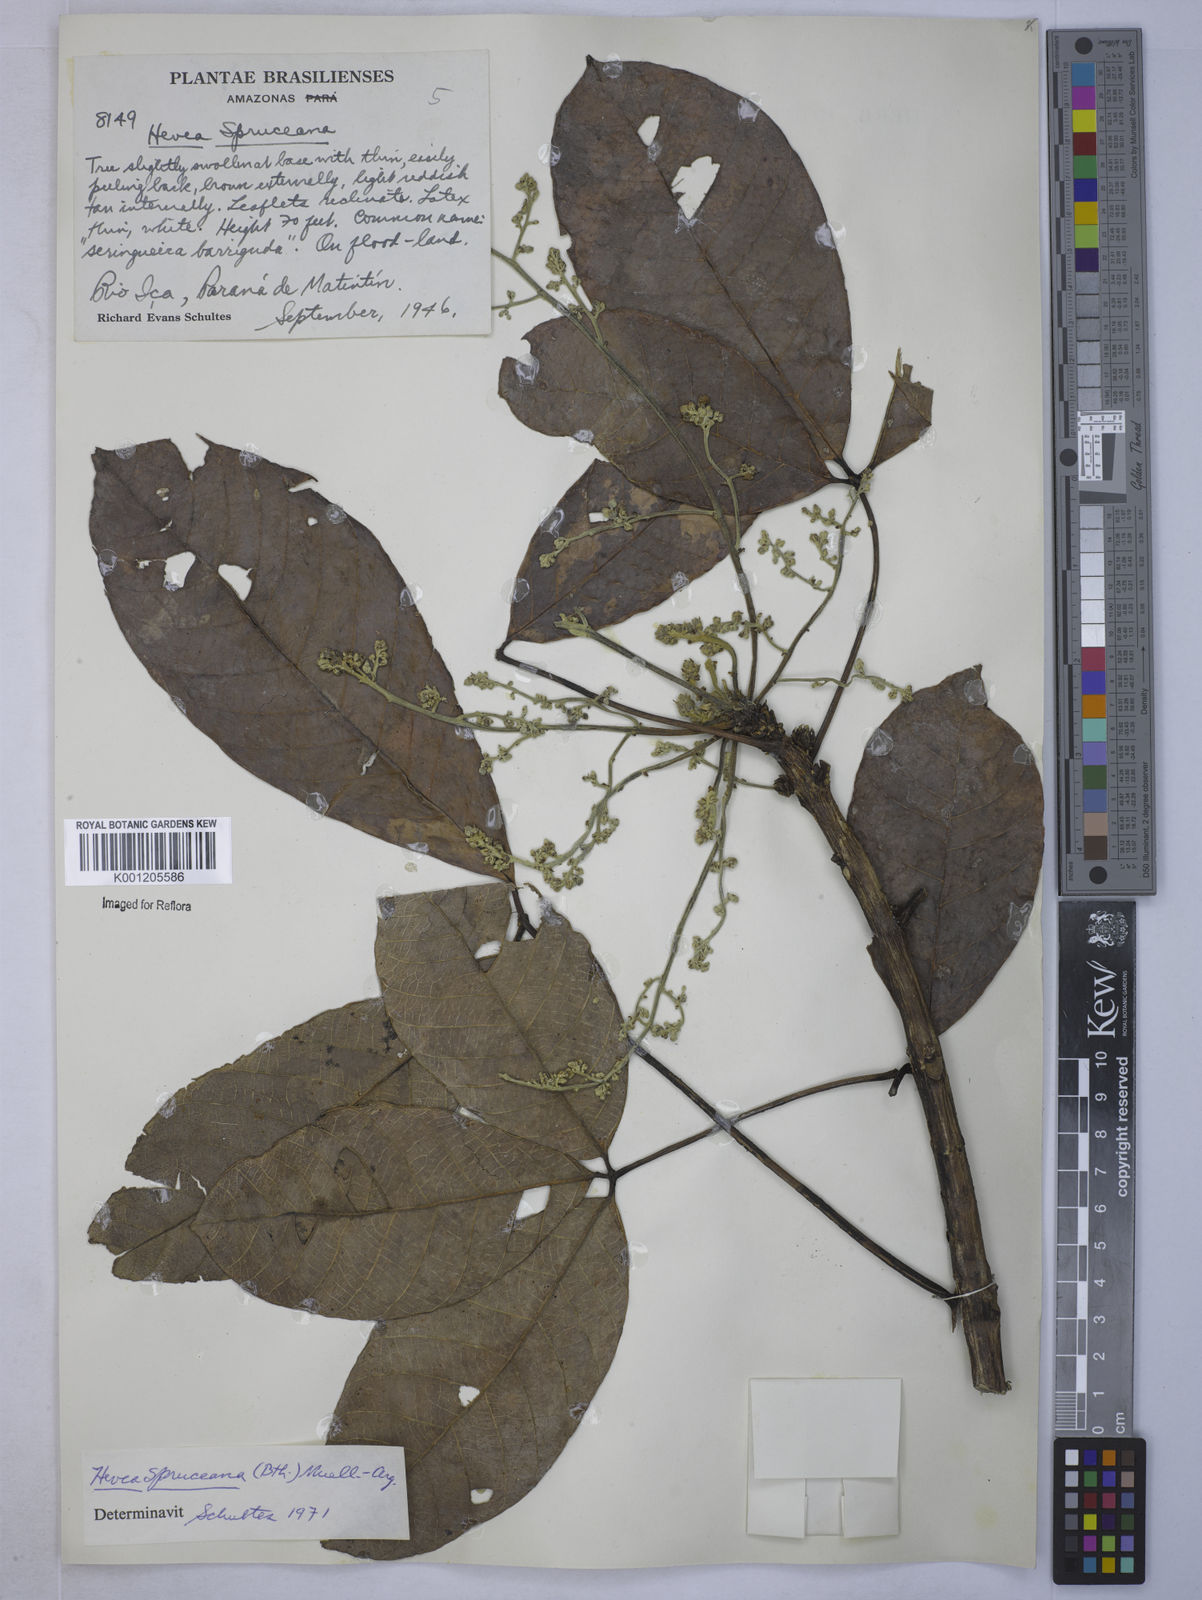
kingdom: Plantae
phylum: Tracheophyta
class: Magnoliopsida
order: Malpighiales
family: Euphorbiaceae
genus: Hevea
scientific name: Hevea
